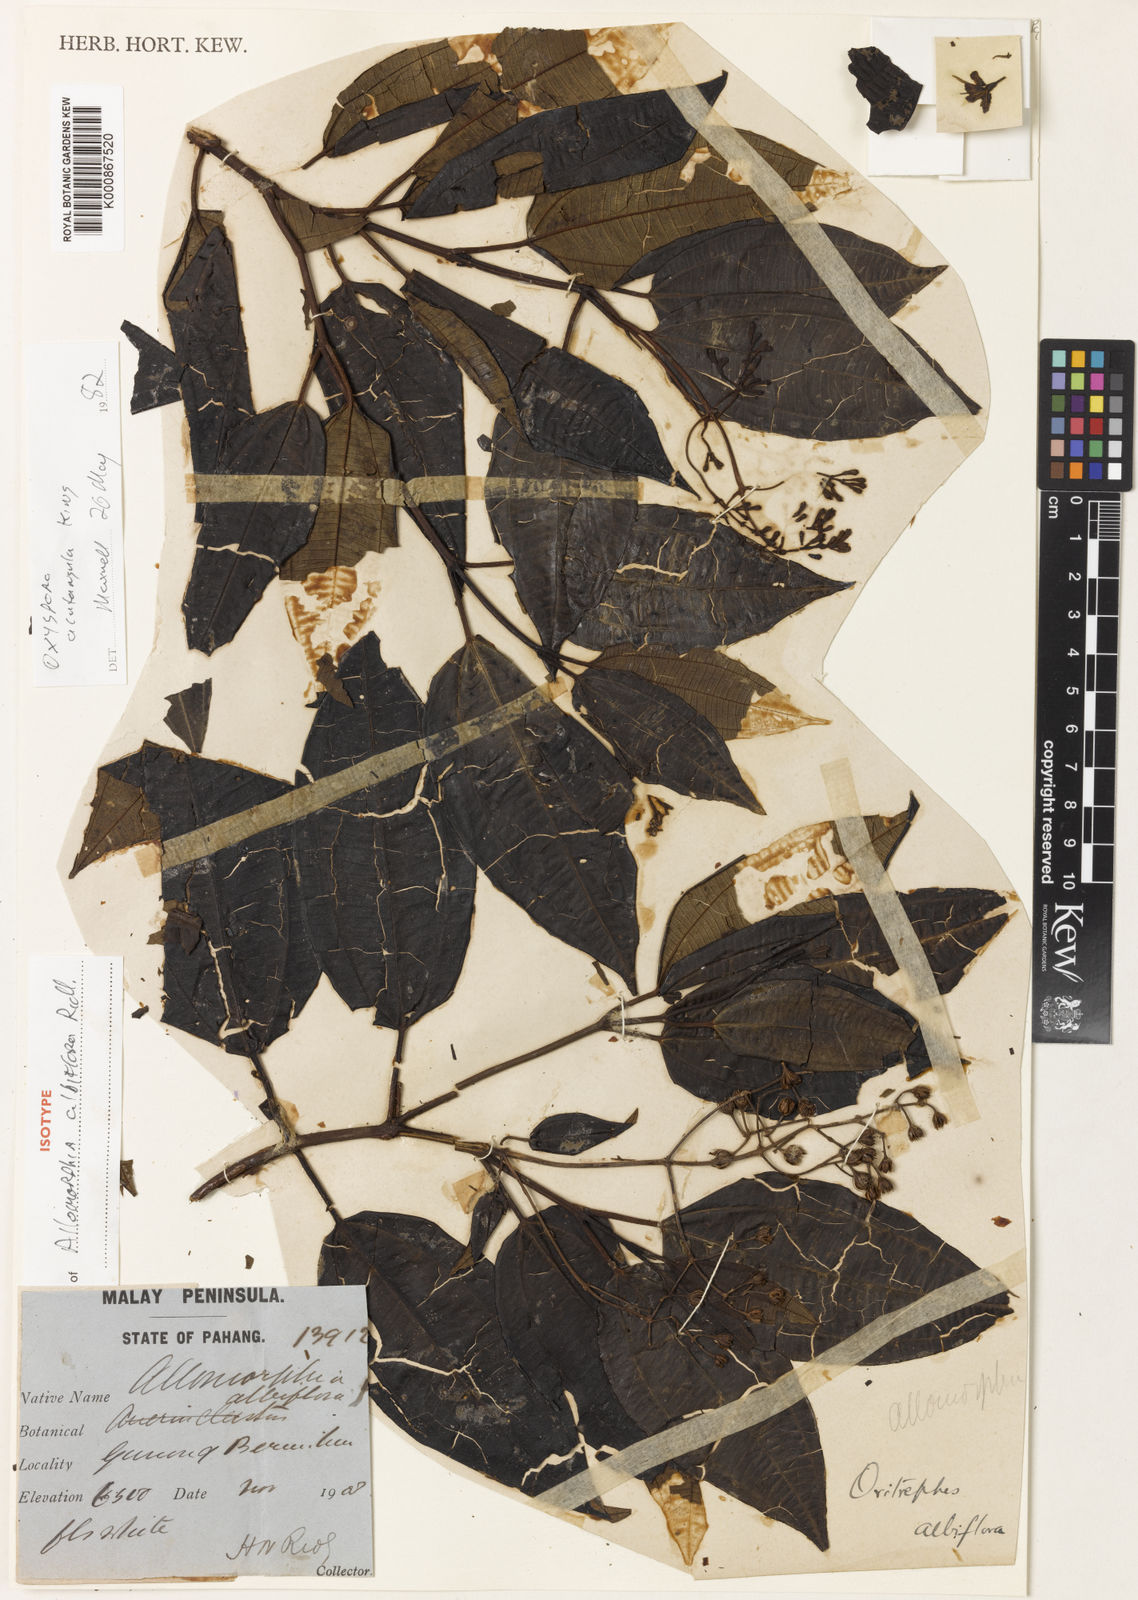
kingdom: Plantae
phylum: Tracheophyta
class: Magnoliopsida
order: Myrtales
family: Melastomataceae
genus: Allomorphia
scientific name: Allomorphia acutangula
